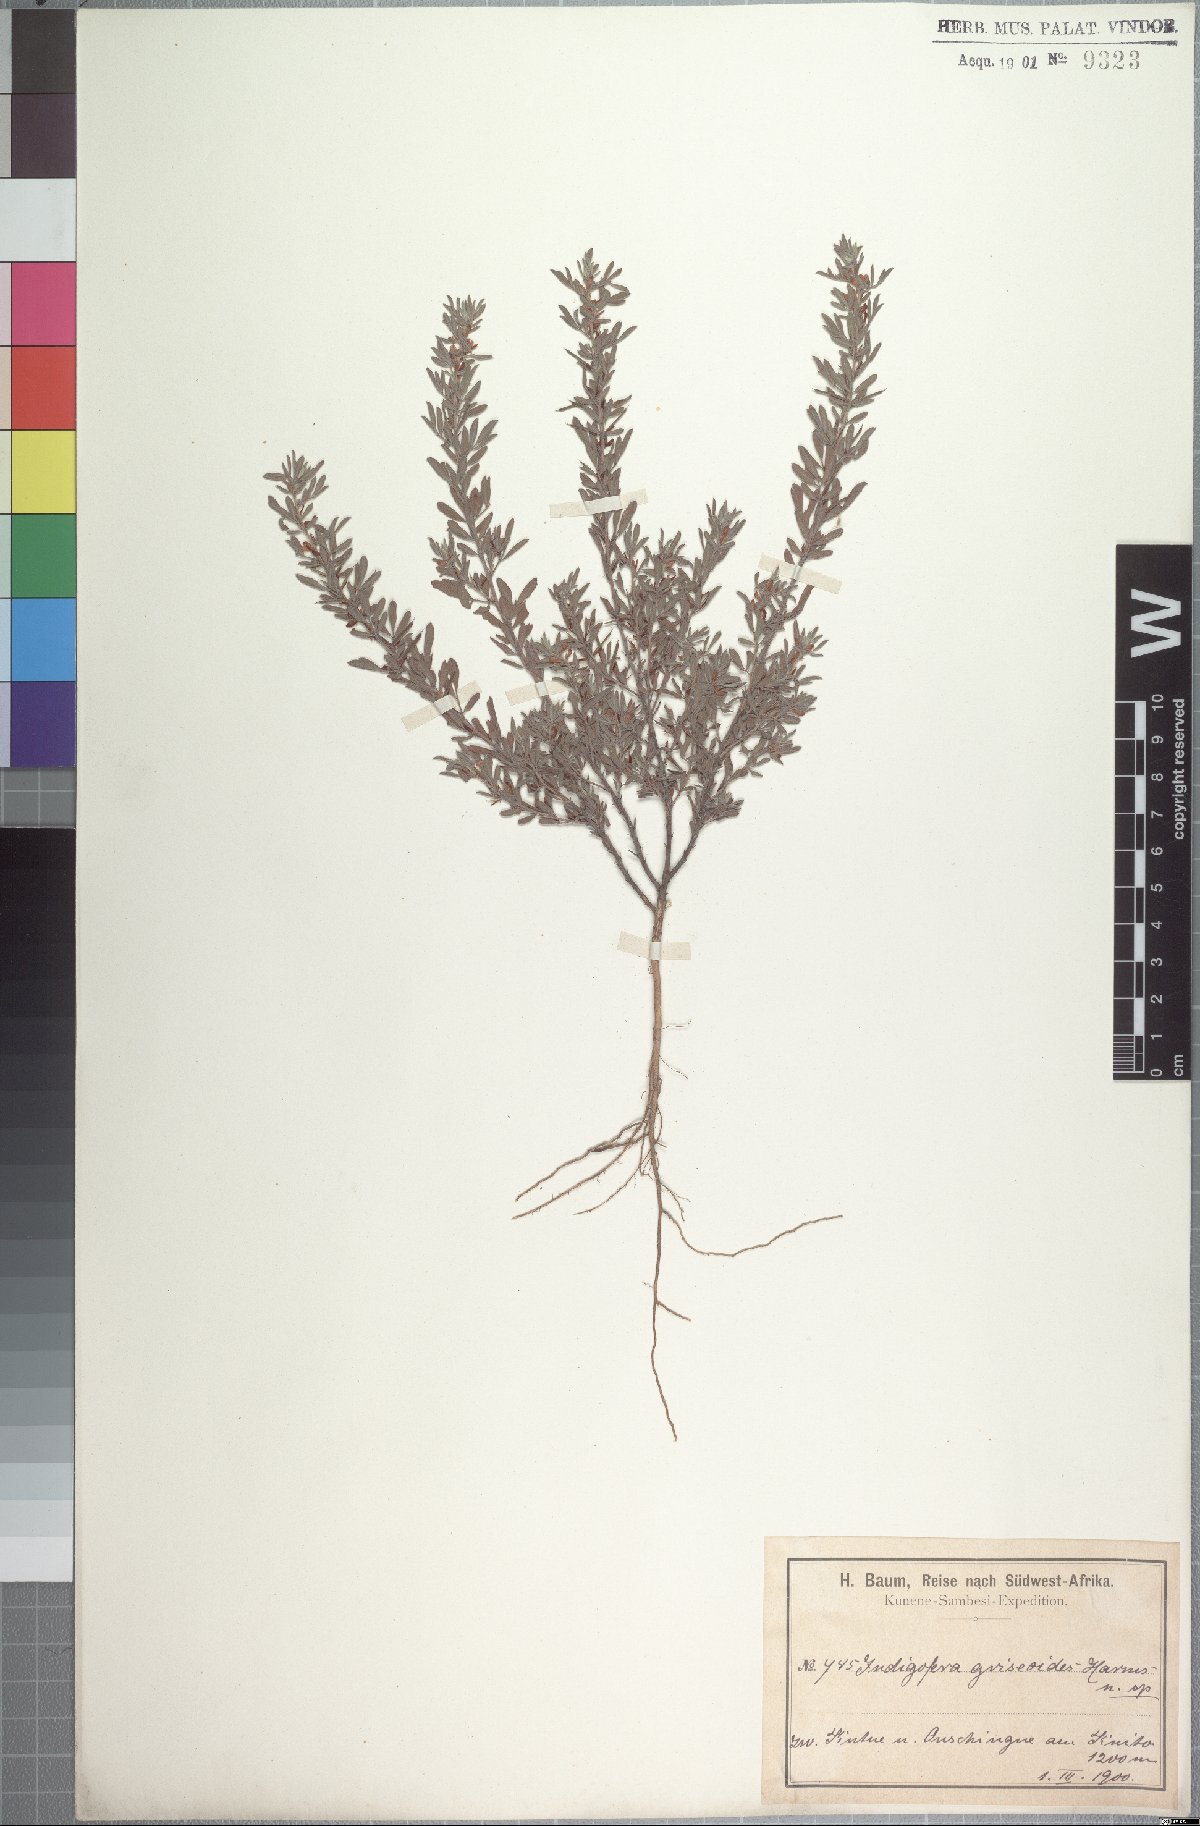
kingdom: Plantae
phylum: Tracheophyta
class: Magnoliopsida
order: Fabales
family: Fabaceae
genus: Indigofera
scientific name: Indigofera griseoides
